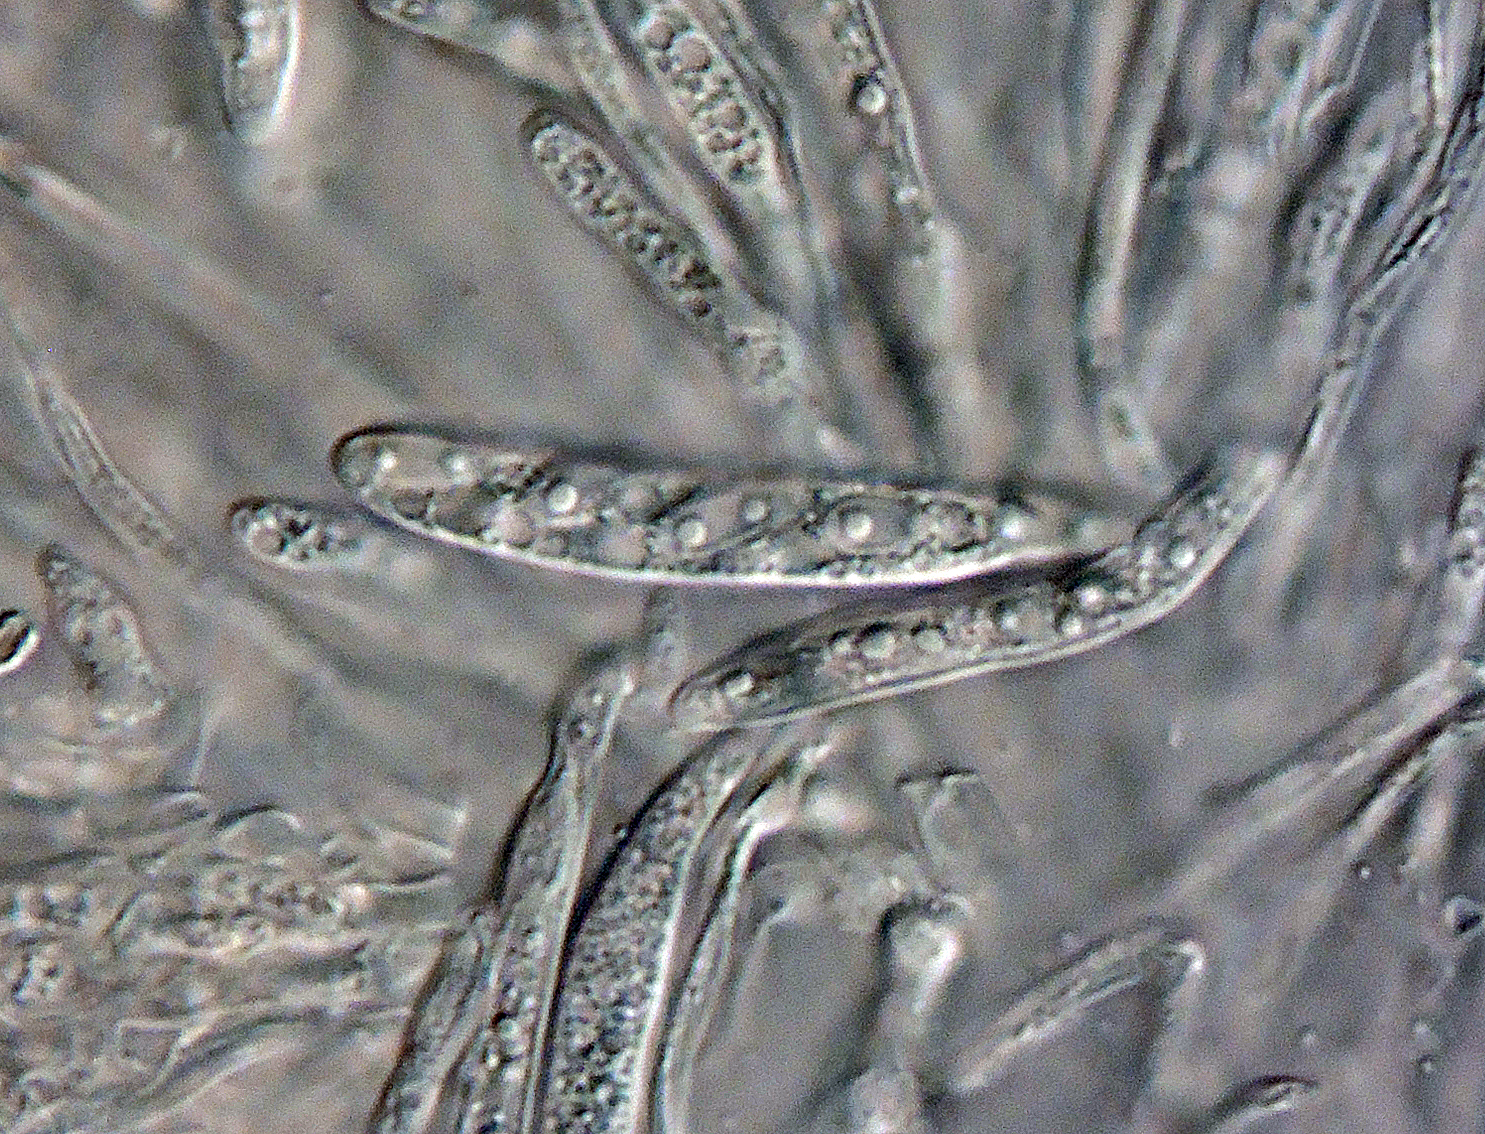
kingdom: Fungi
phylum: Ascomycota
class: Leotiomycetes
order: Helotiales
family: Ploettnerulaceae
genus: Belonium
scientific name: Belonium psammicola
